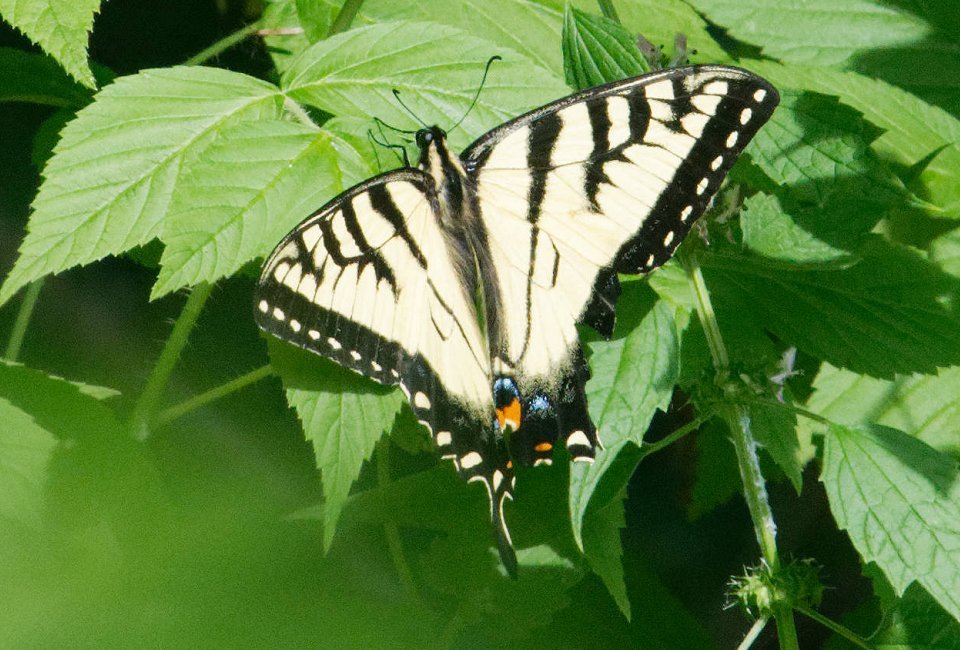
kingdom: Animalia
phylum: Arthropoda
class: Insecta
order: Lepidoptera
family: Papilionidae
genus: Pterourus
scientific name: Pterourus glaucus
